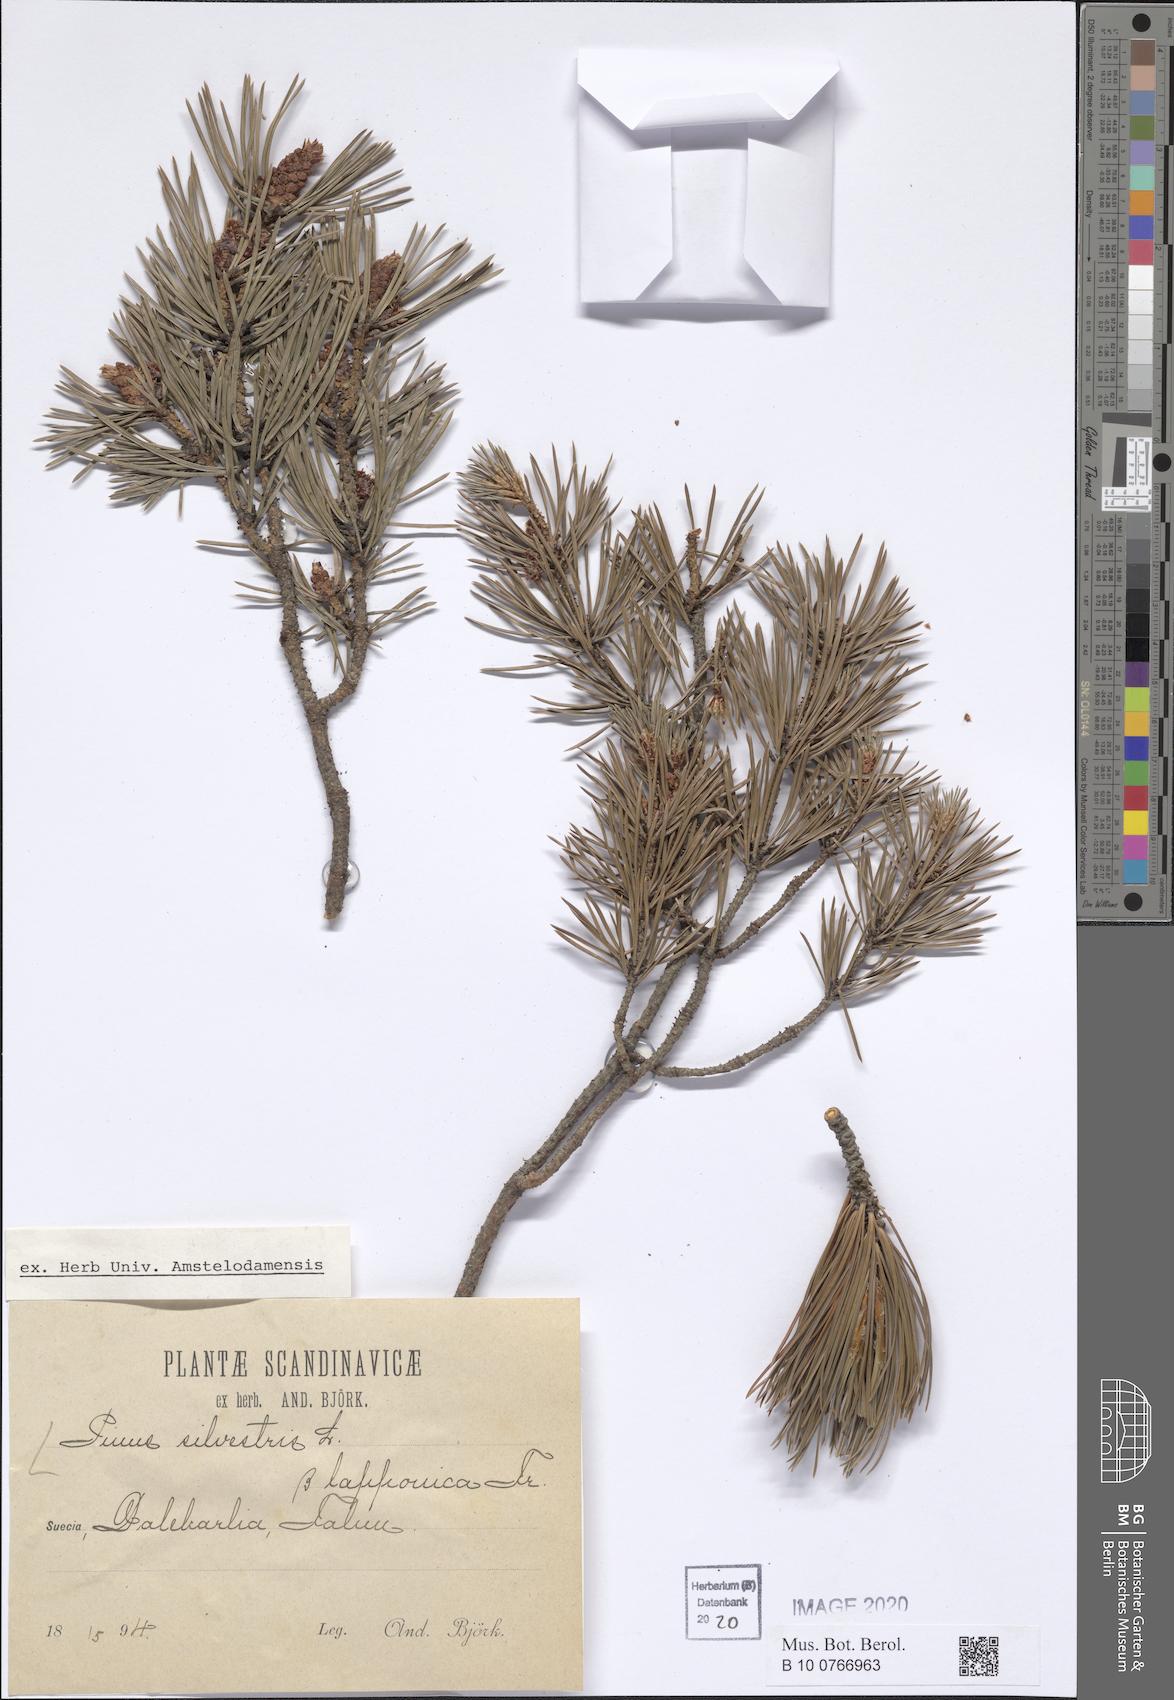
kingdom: Plantae
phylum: Tracheophyta
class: Pinopsida
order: Pinales
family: Pinaceae
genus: Pinus
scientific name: Pinus sylvestris
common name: Scots pine
